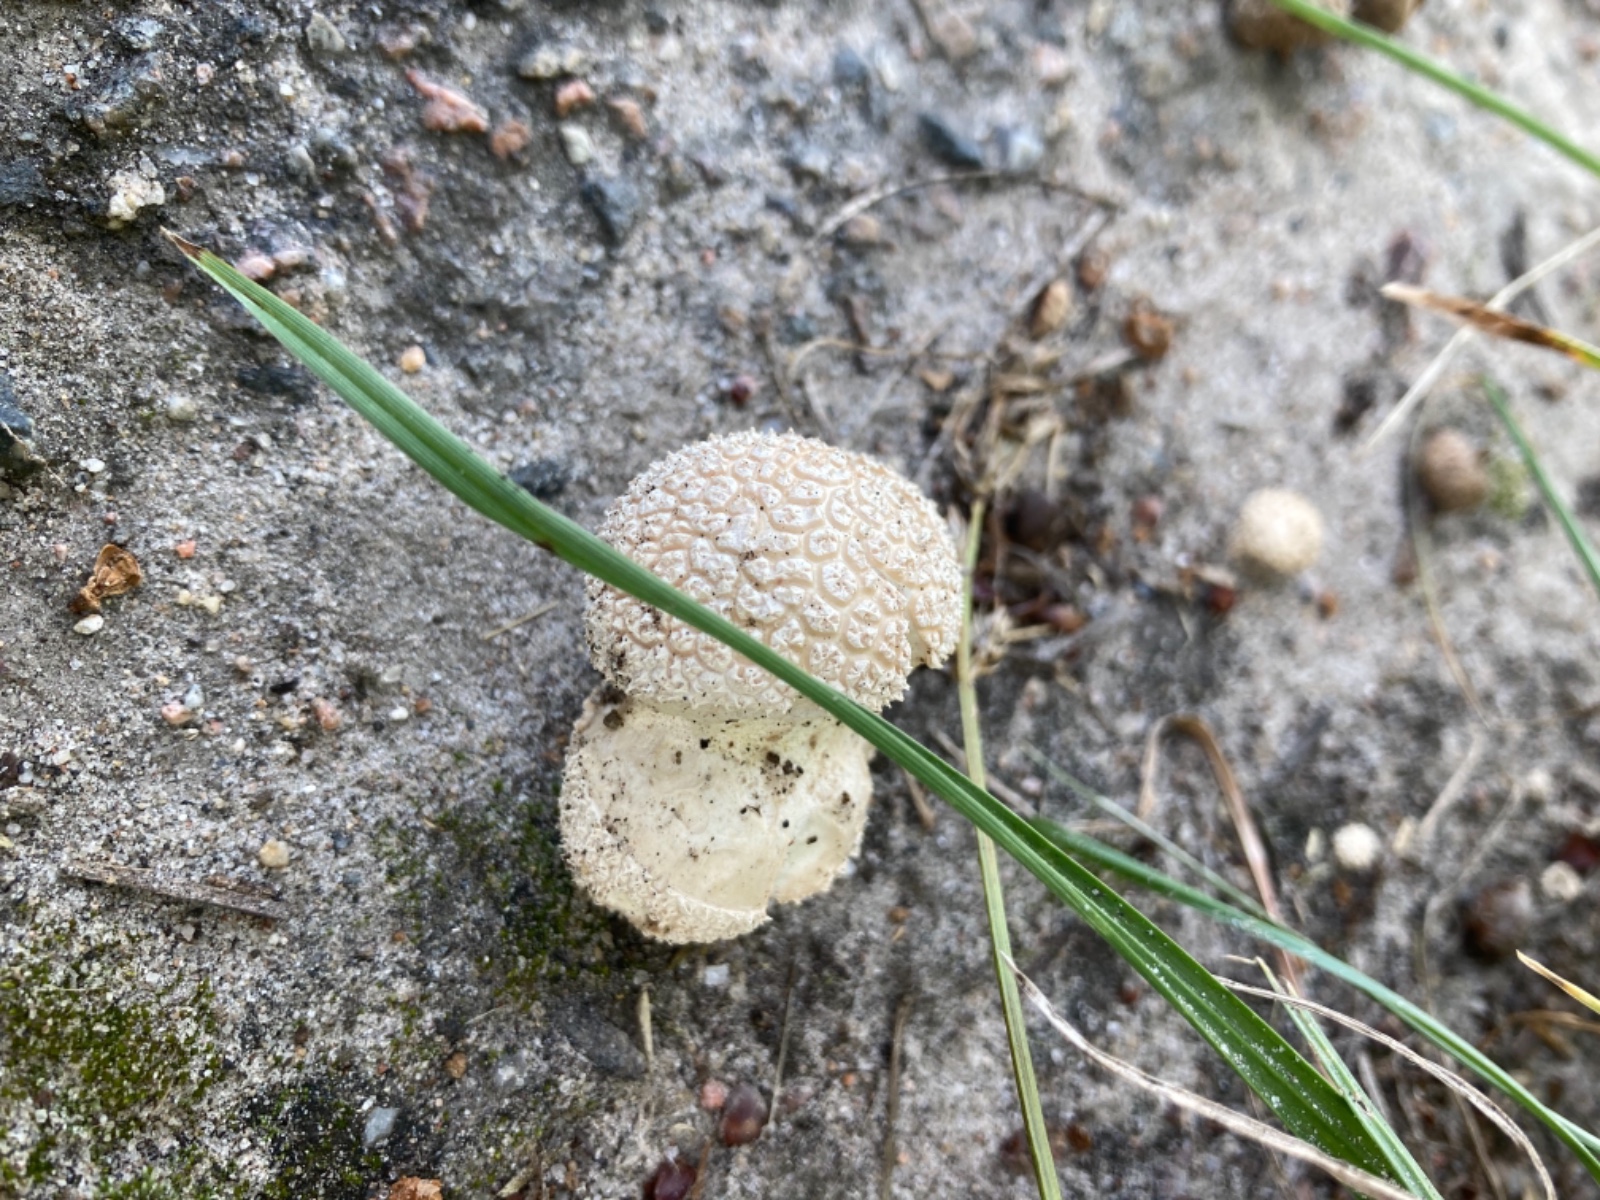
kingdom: Fungi
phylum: Basidiomycota
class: Agaricomycetes
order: Agaricales
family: Agaricaceae
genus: Lycoperdon
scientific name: Lycoperdon
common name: støvbold
